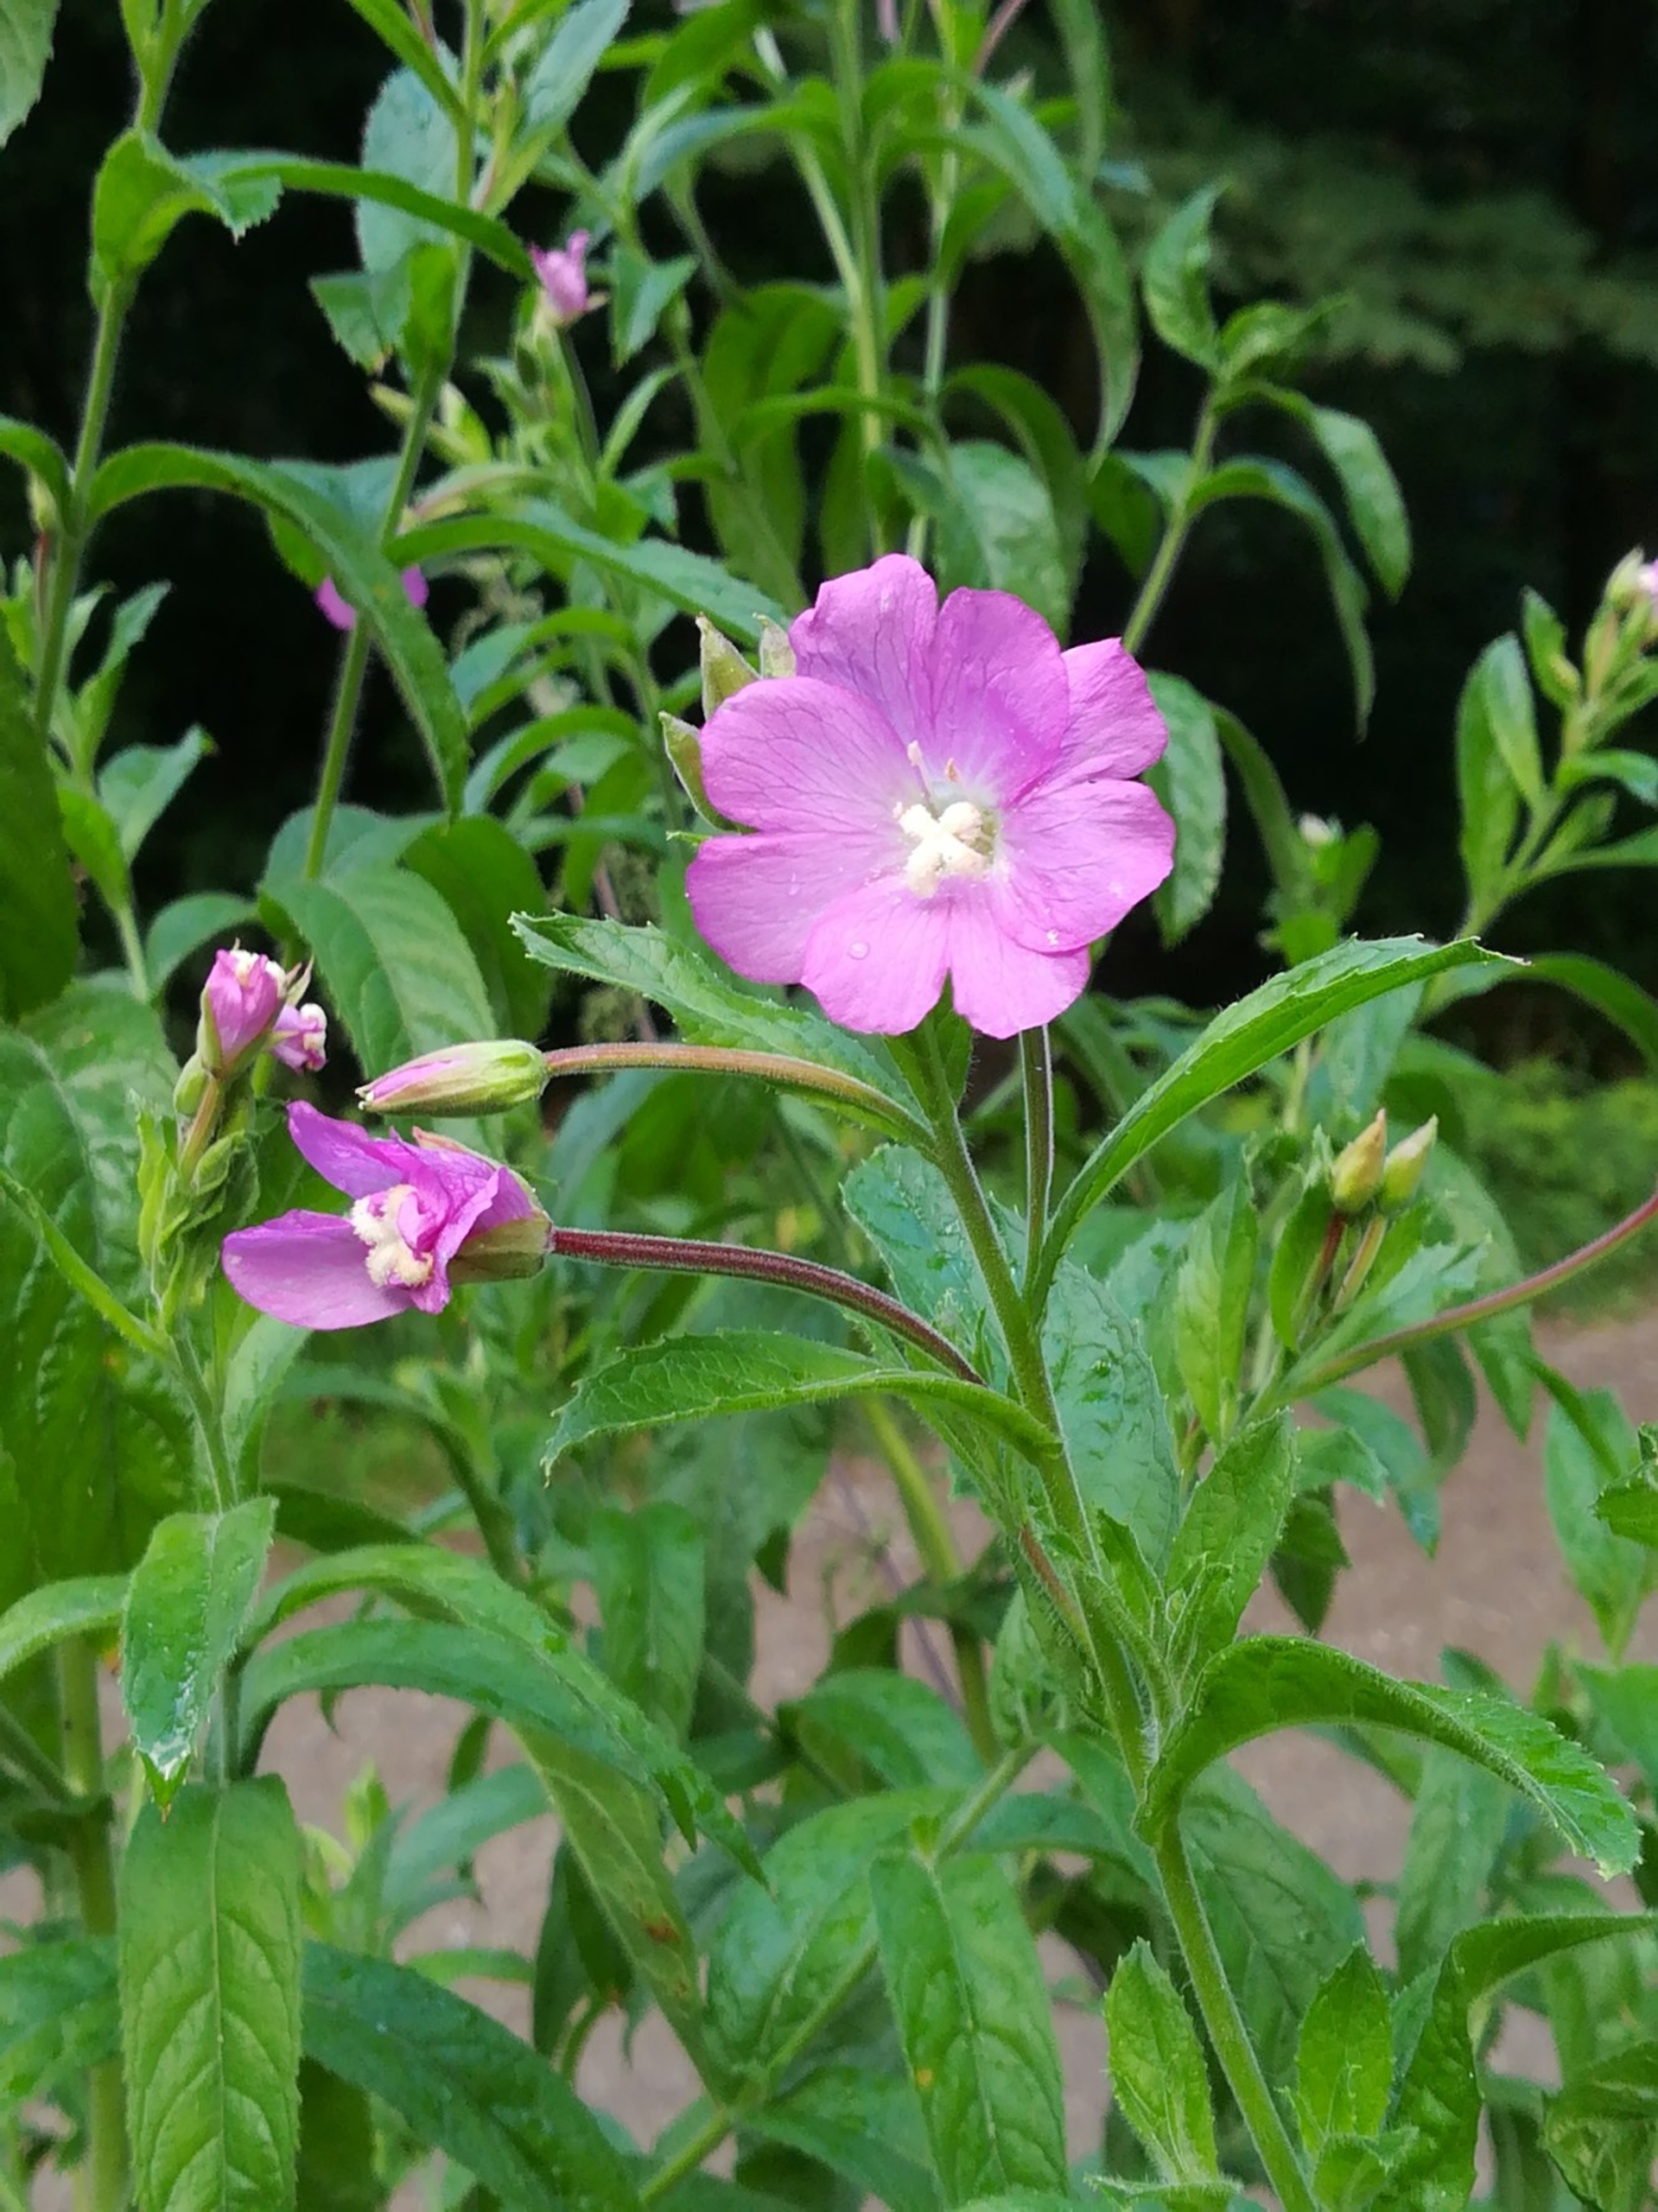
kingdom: Plantae
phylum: Tracheophyta
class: Magnoliopsida
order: Myrtales
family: Onagraceae
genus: Epilobium
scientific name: Epilobium hirsutum
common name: Lådden dueurt
